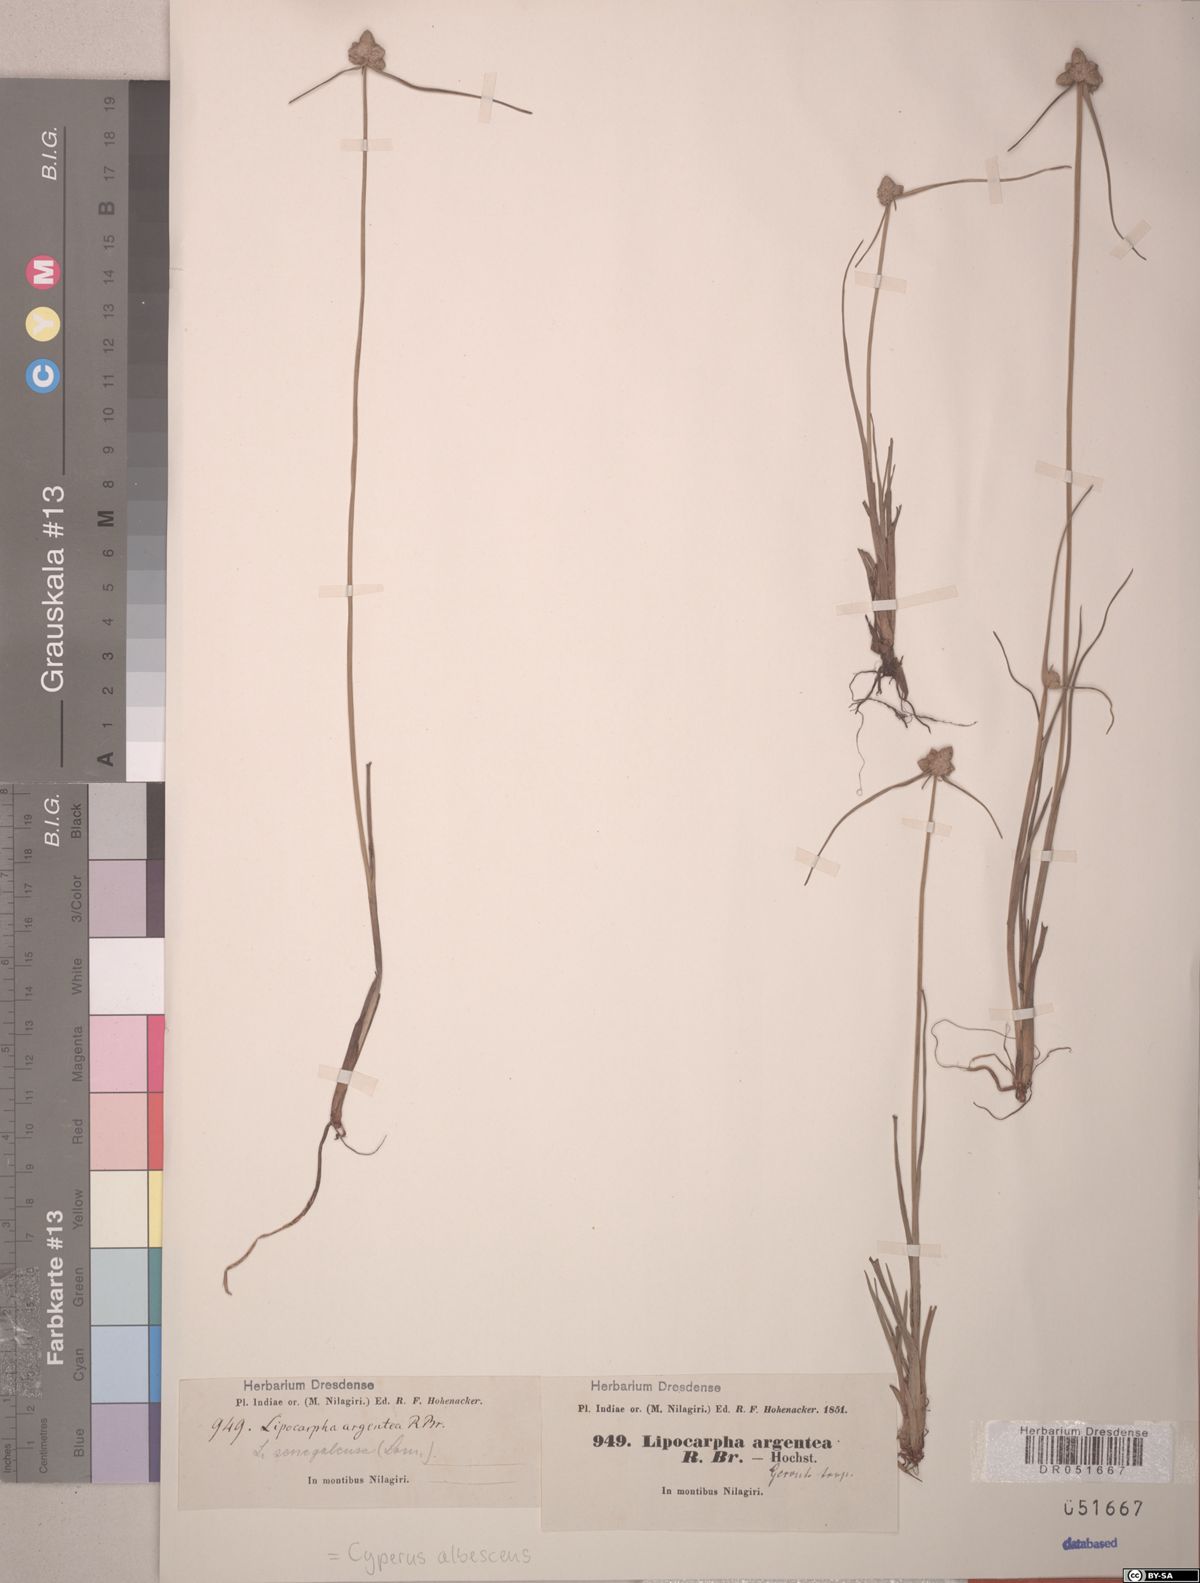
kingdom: Plantae
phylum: Tracheophyta
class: Liliopsida
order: Poales
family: Cyperaceae
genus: Cyperus
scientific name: Cyperus albescens
